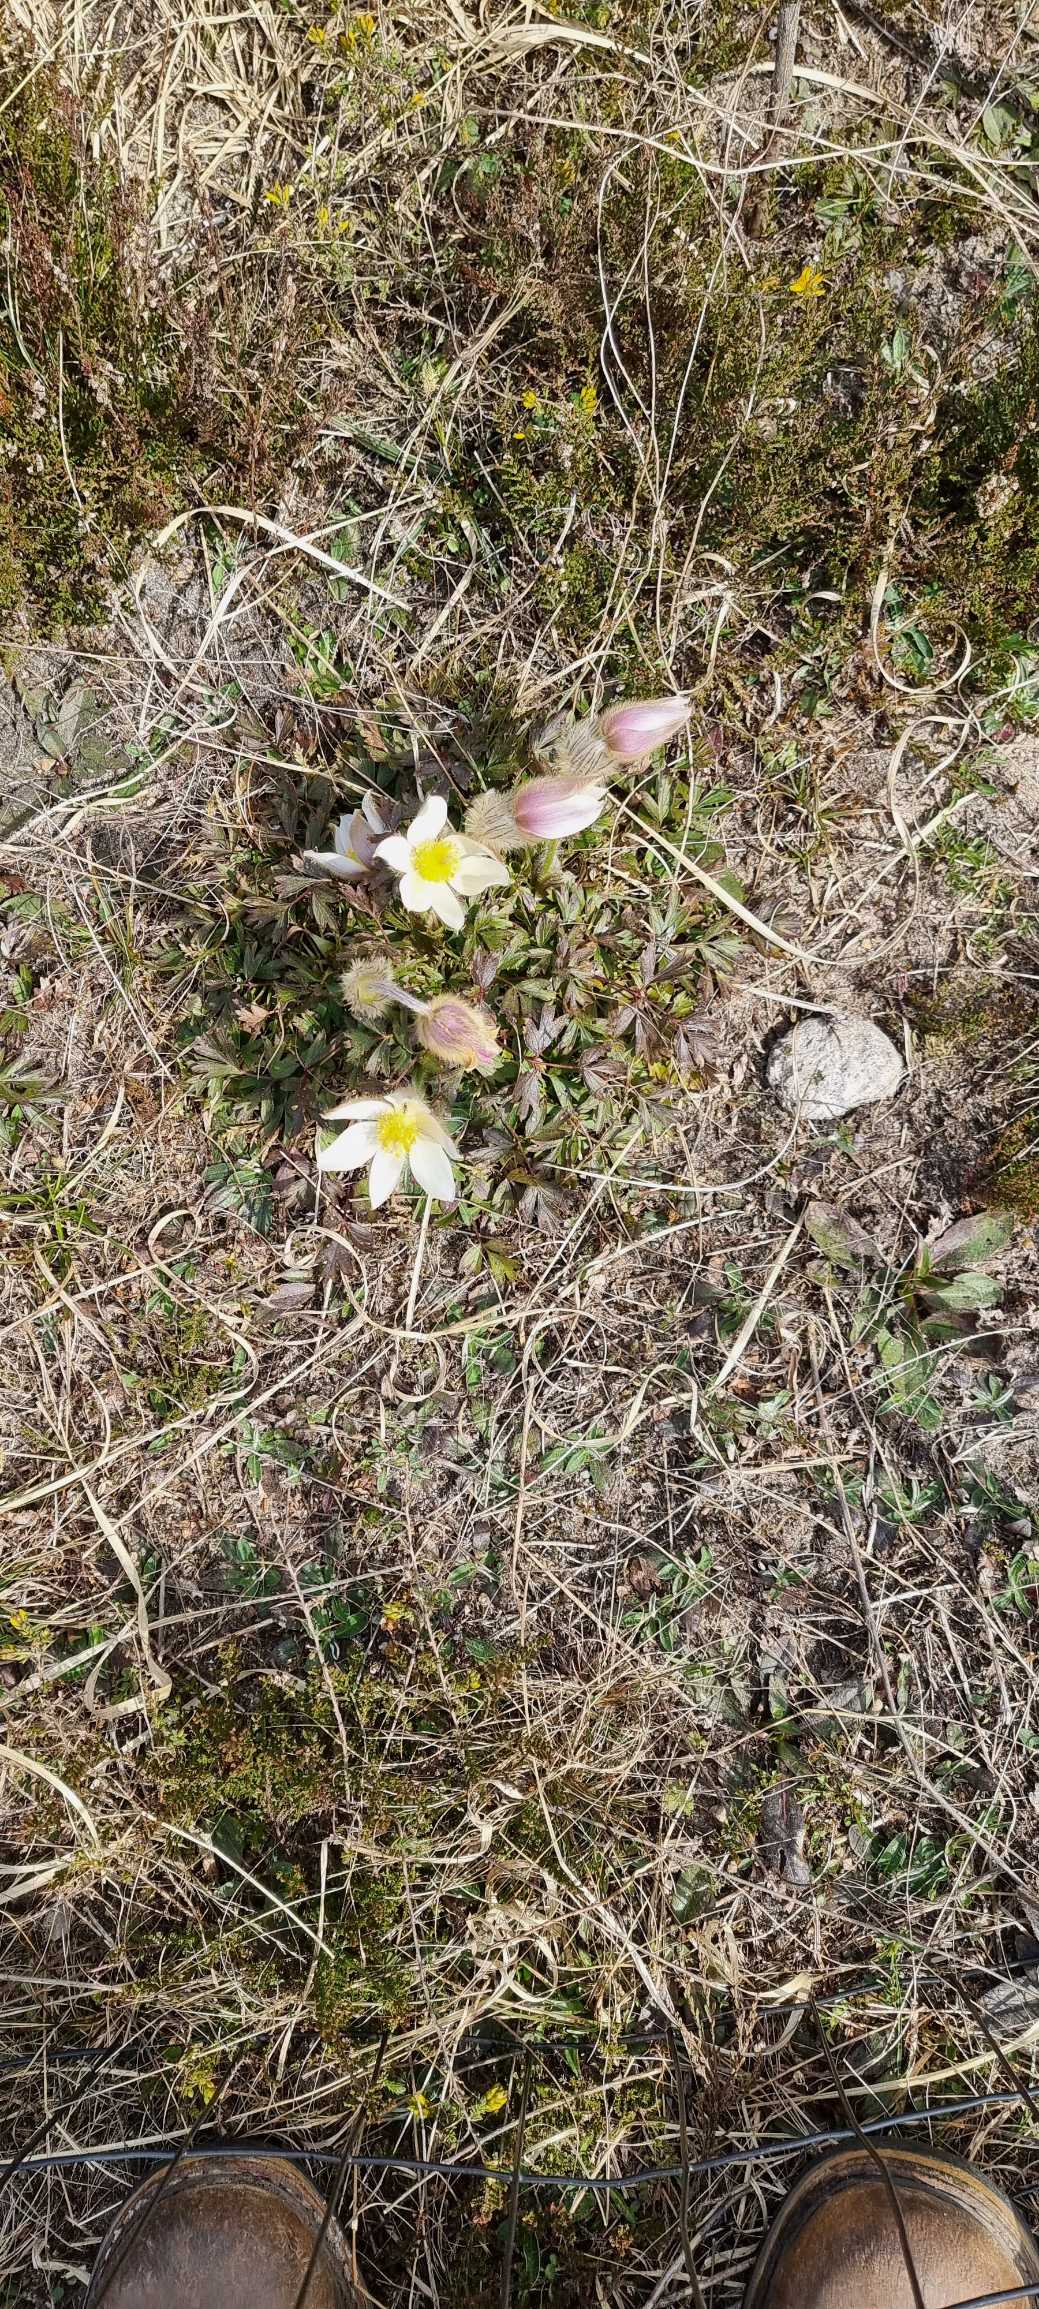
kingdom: Plantae
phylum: Tracheophyta
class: Magnoliopsida
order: Ranunculales
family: Ranunculaceae
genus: Pulsatilla
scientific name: Pulsatilla vernalis
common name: Vår-kobjælde
